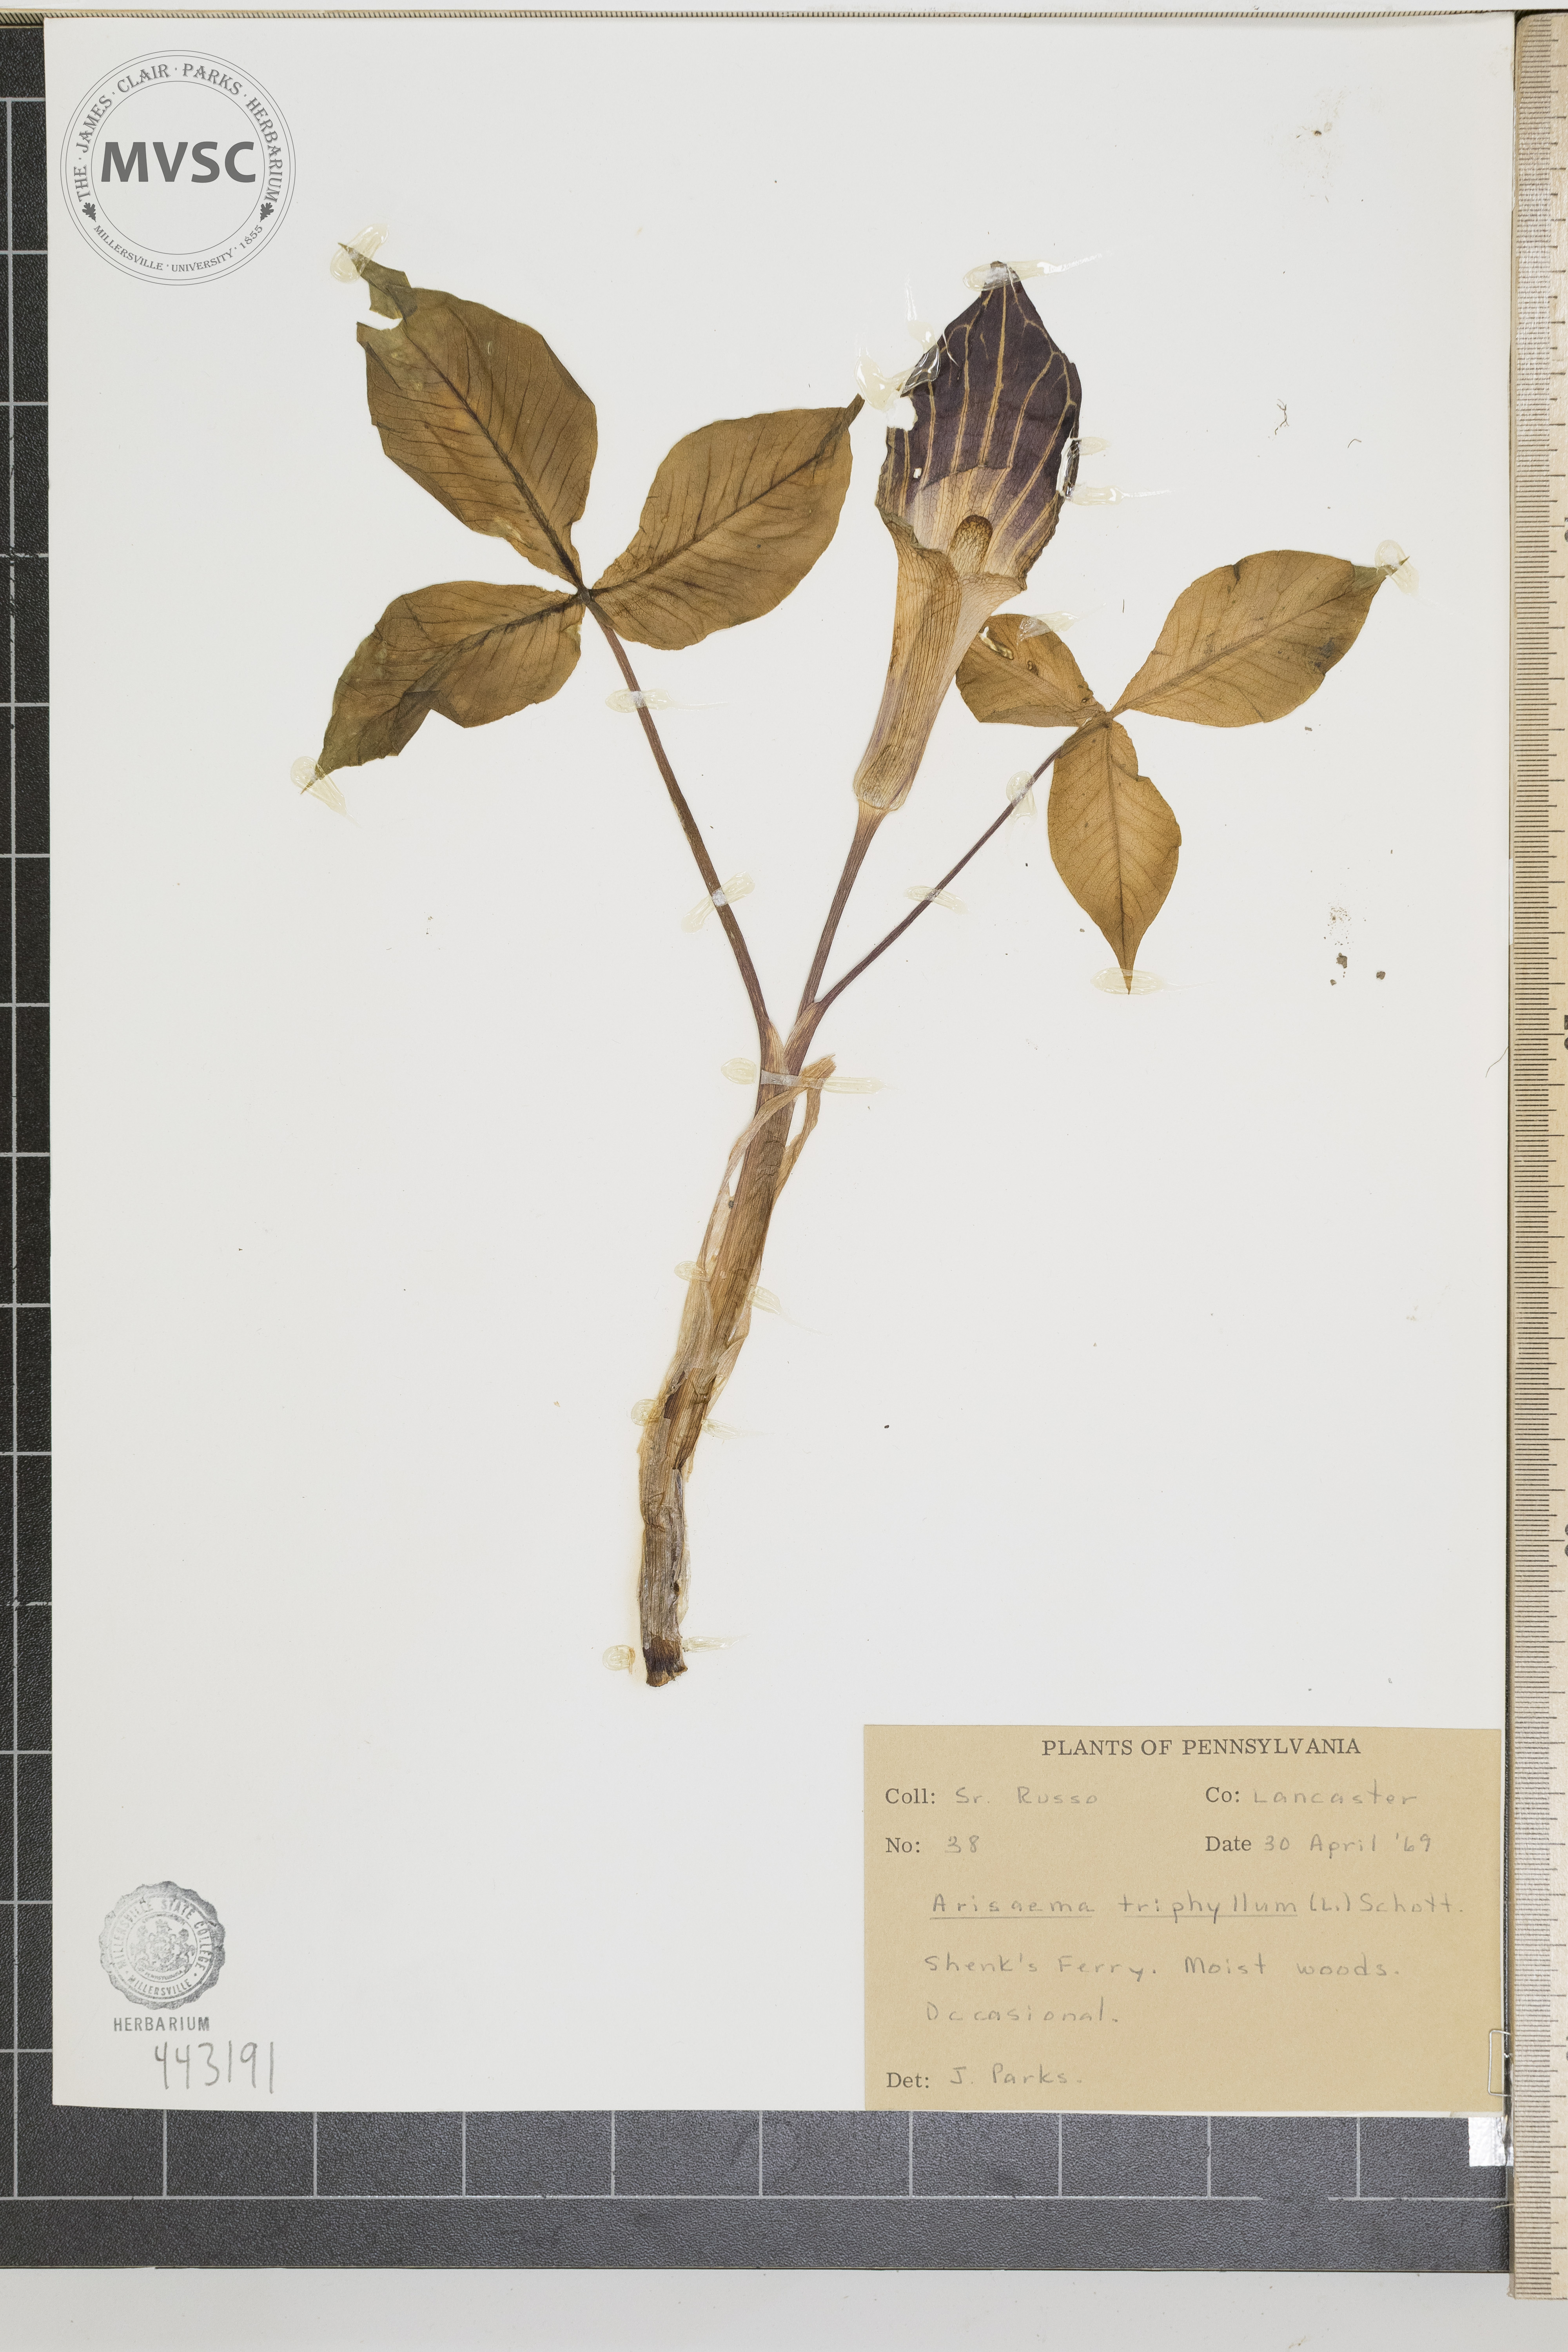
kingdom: Plantae
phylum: Tracheophyta
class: Liliopsida
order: Alismatales
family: Araceae
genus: Arisaema
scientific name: Arisaema triphyllum
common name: Jack-in-the-pulpit
